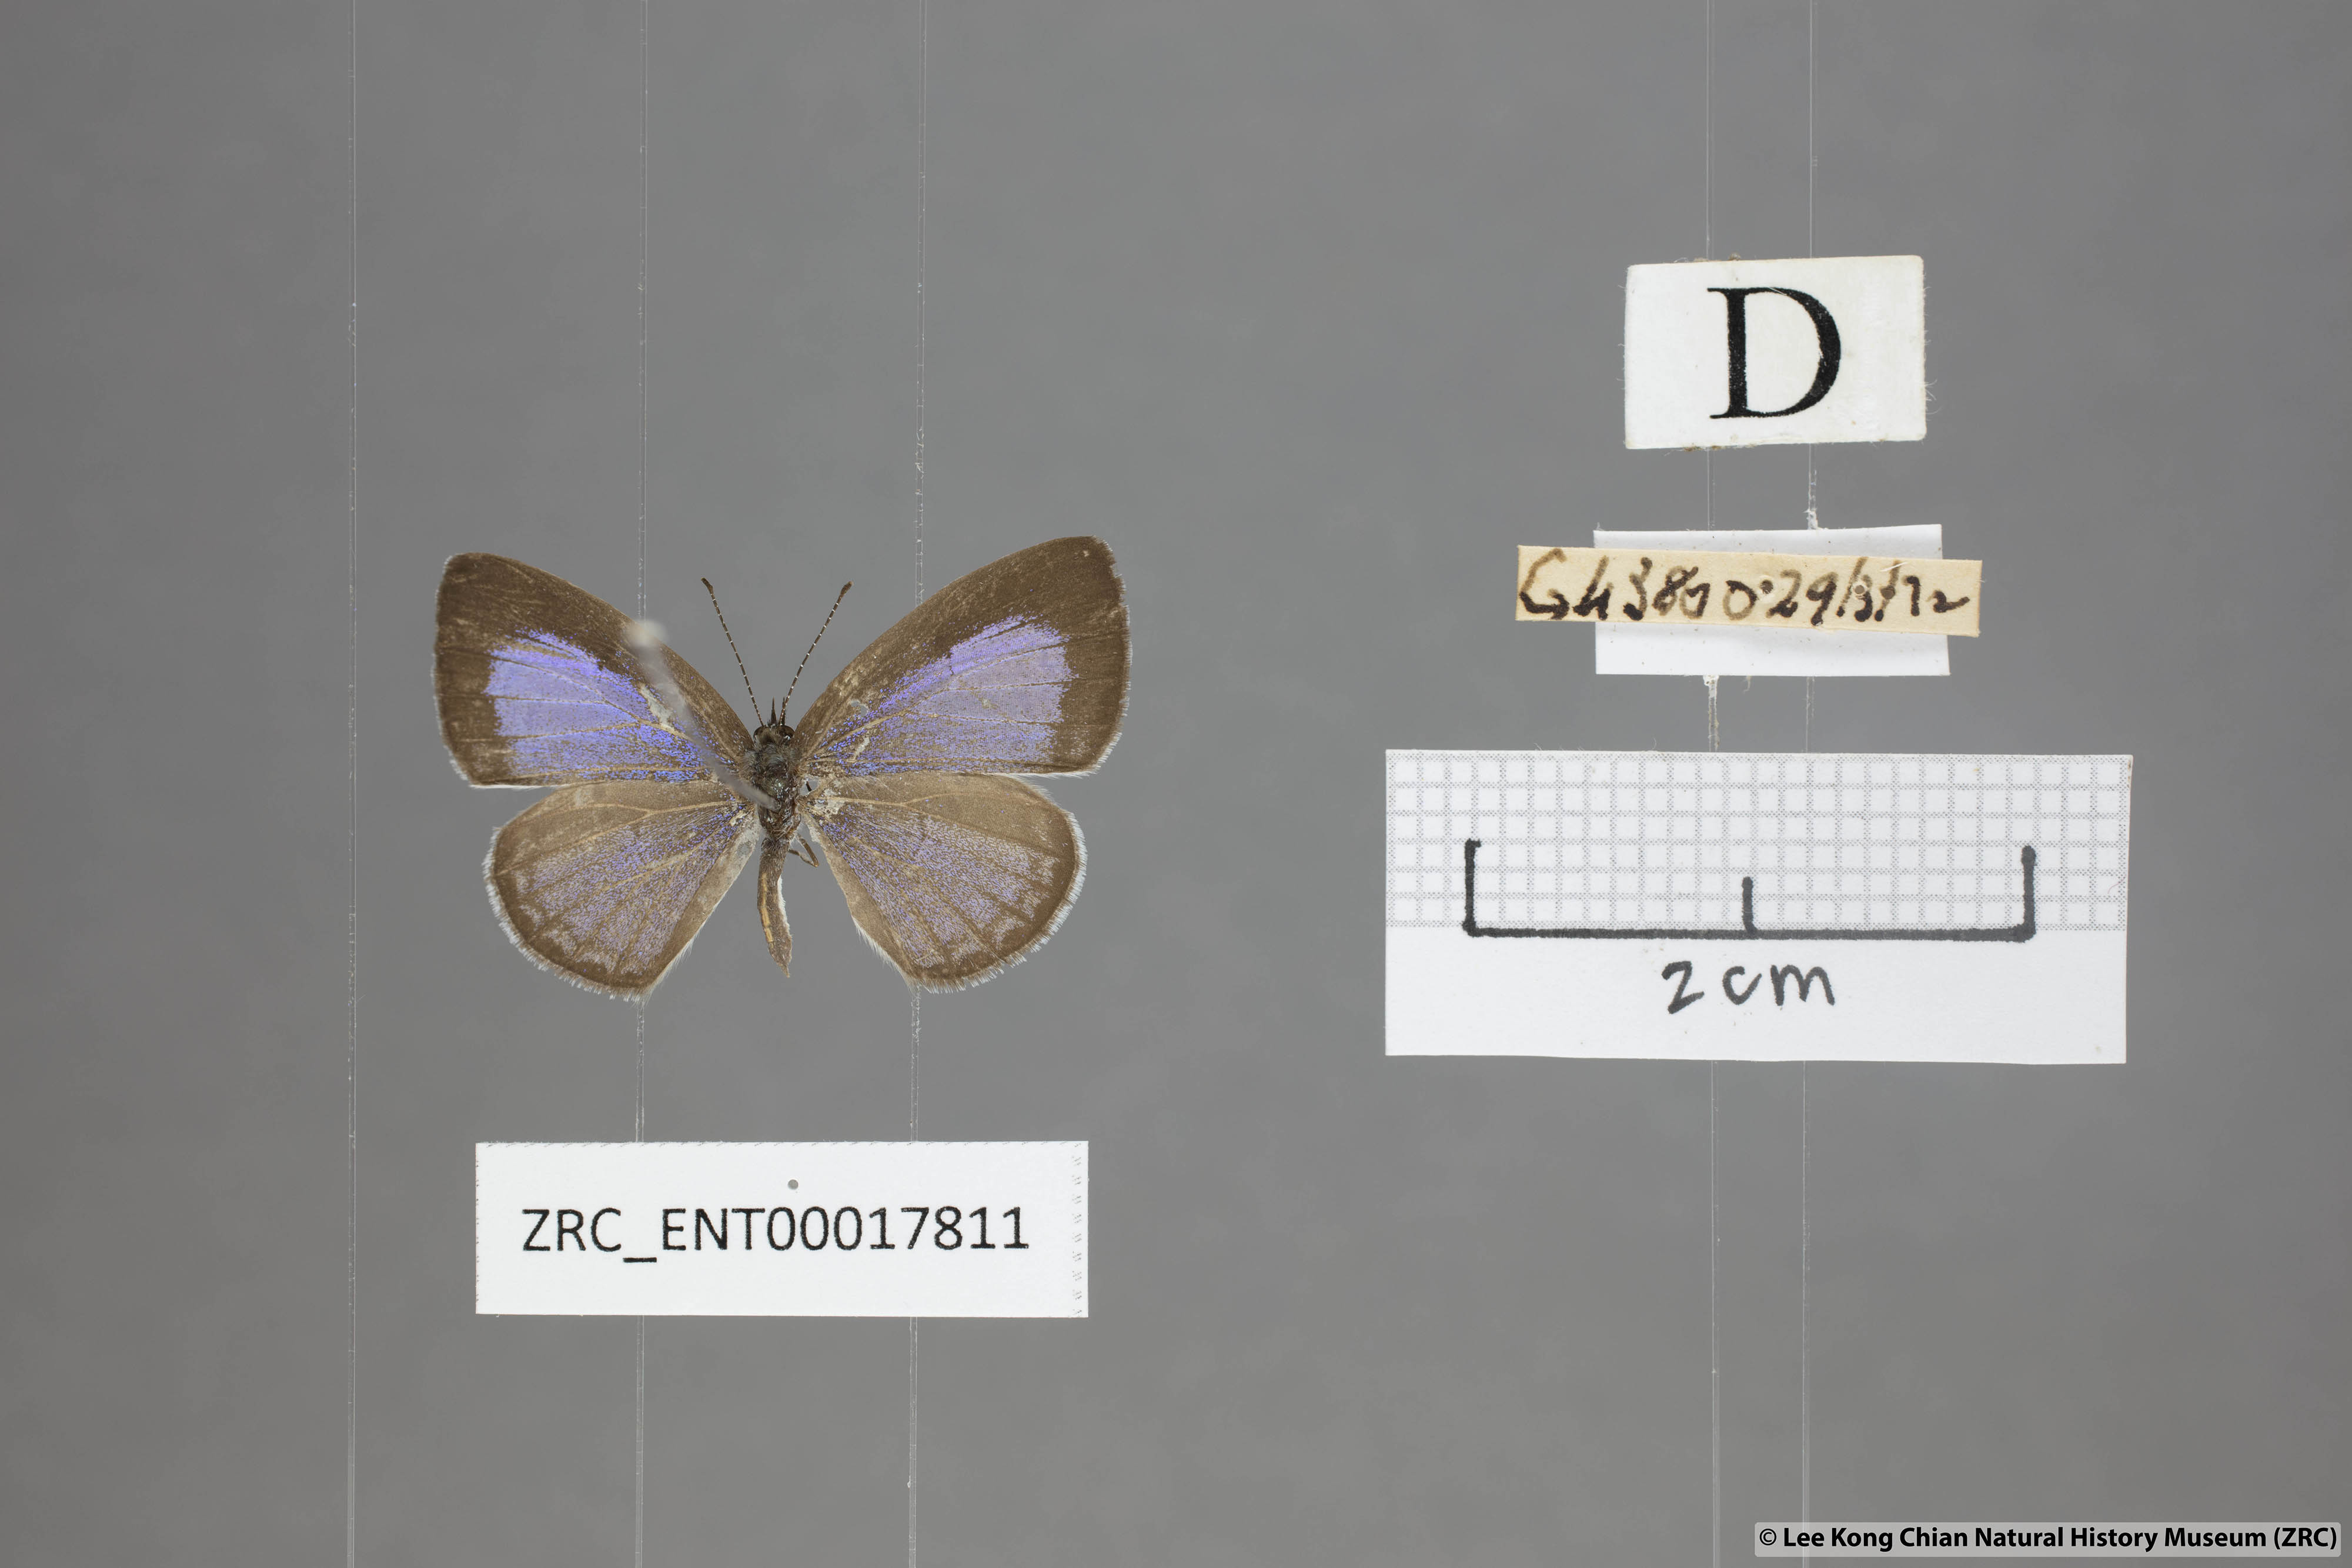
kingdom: Animalia
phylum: Arthropoda
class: Insecta
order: Lepidoptera
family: Lycaenidae
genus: Monodontides
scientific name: Monodontides
